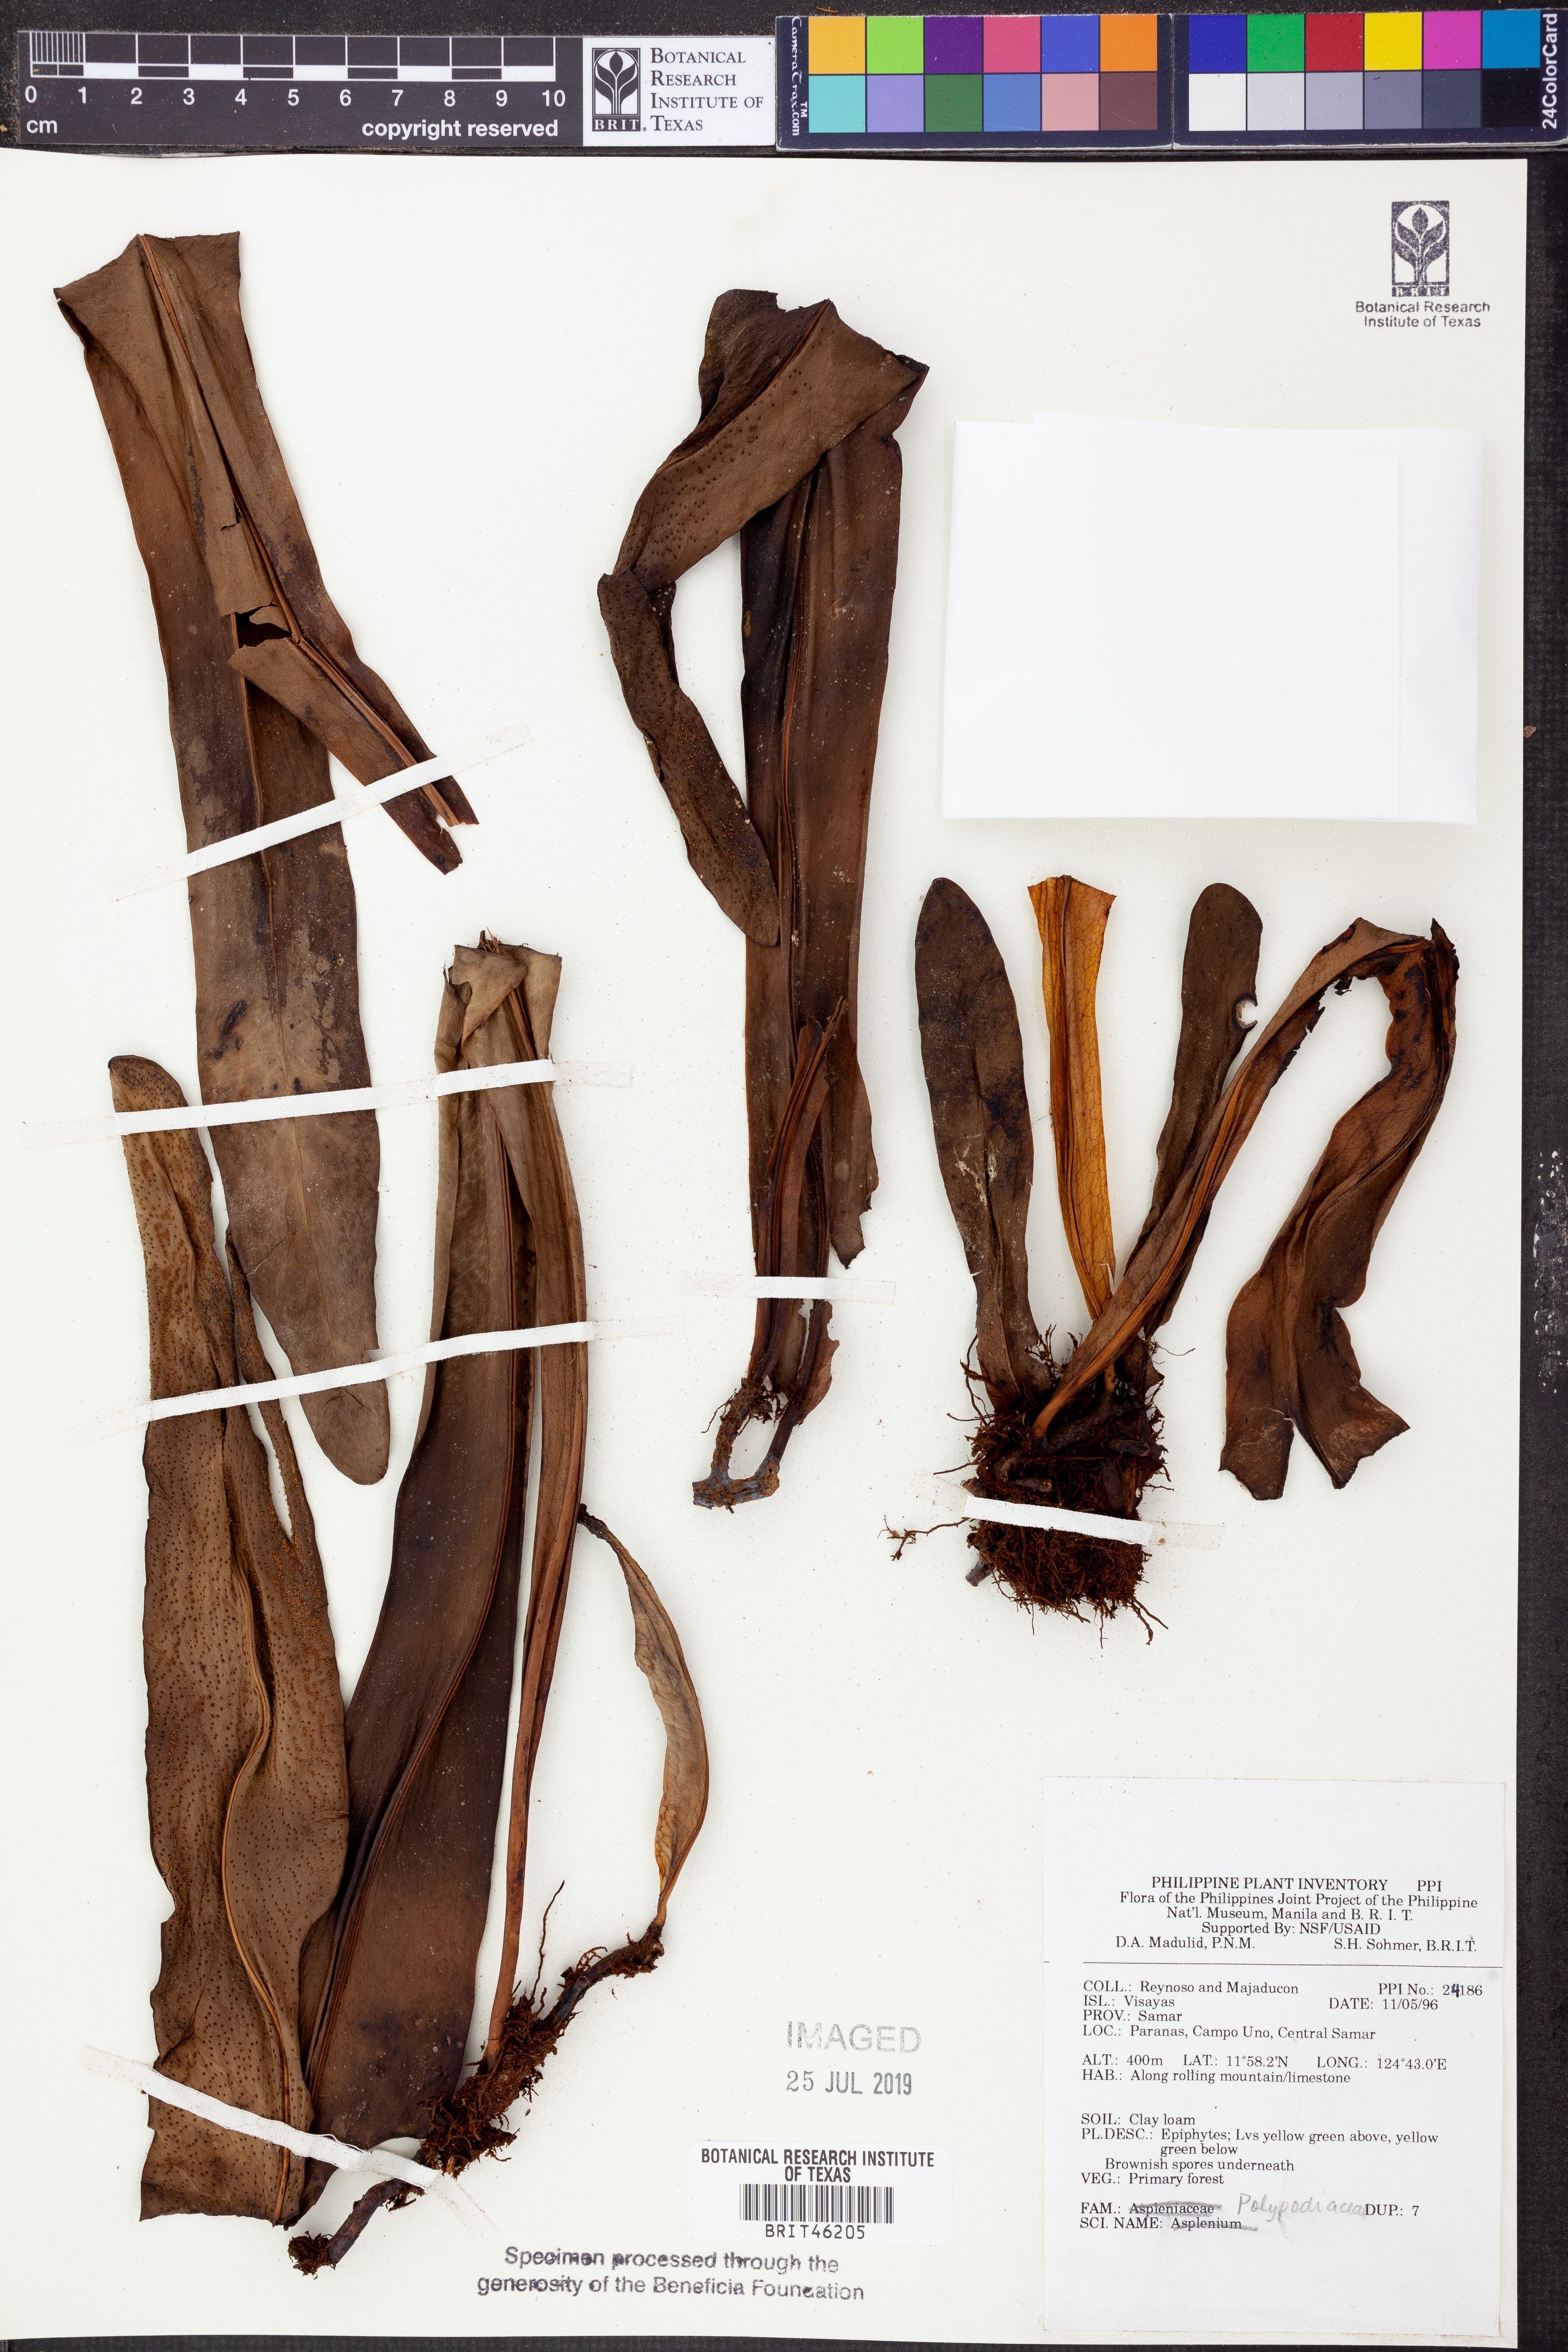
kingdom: Plantae
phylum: Tracheophyta
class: Polypodiopsida
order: Polypodiales
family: Polypodiaceae
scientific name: Polypodiaceae
